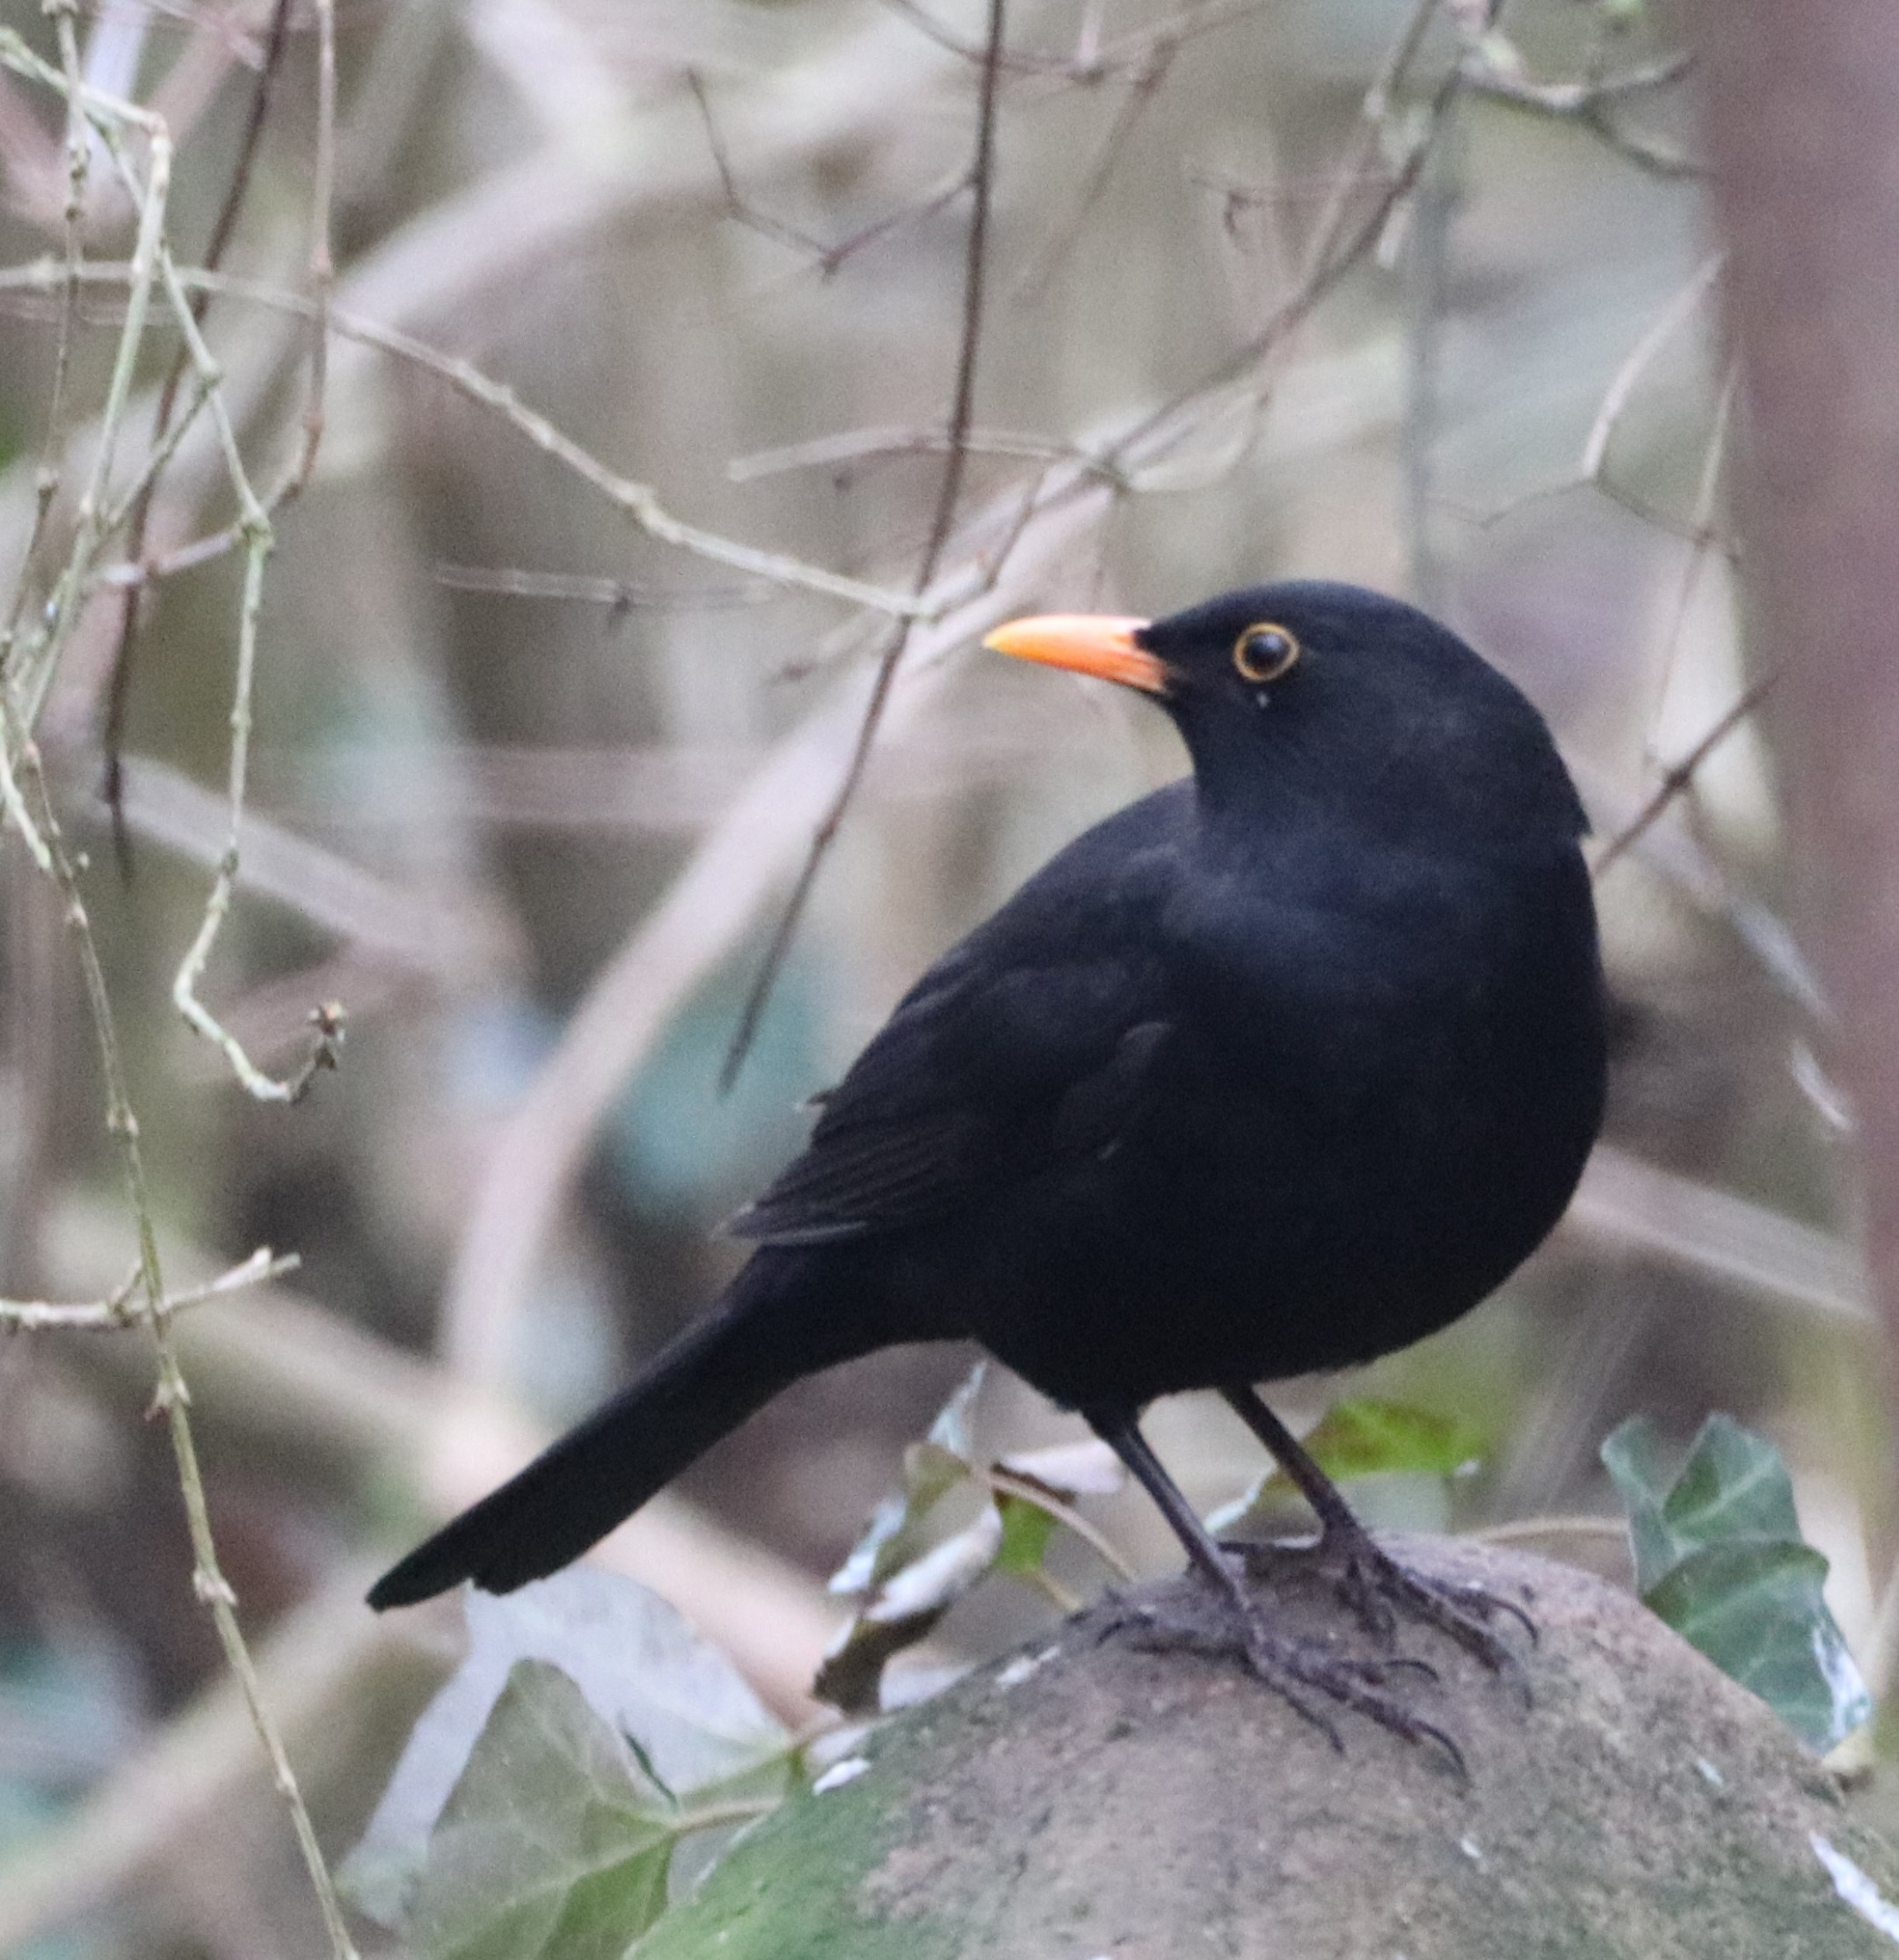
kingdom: Animalia
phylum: Chordata
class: Aves
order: Passeriformes
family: Turdidae
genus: Turdus
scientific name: Turdus merula
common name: Solsort
